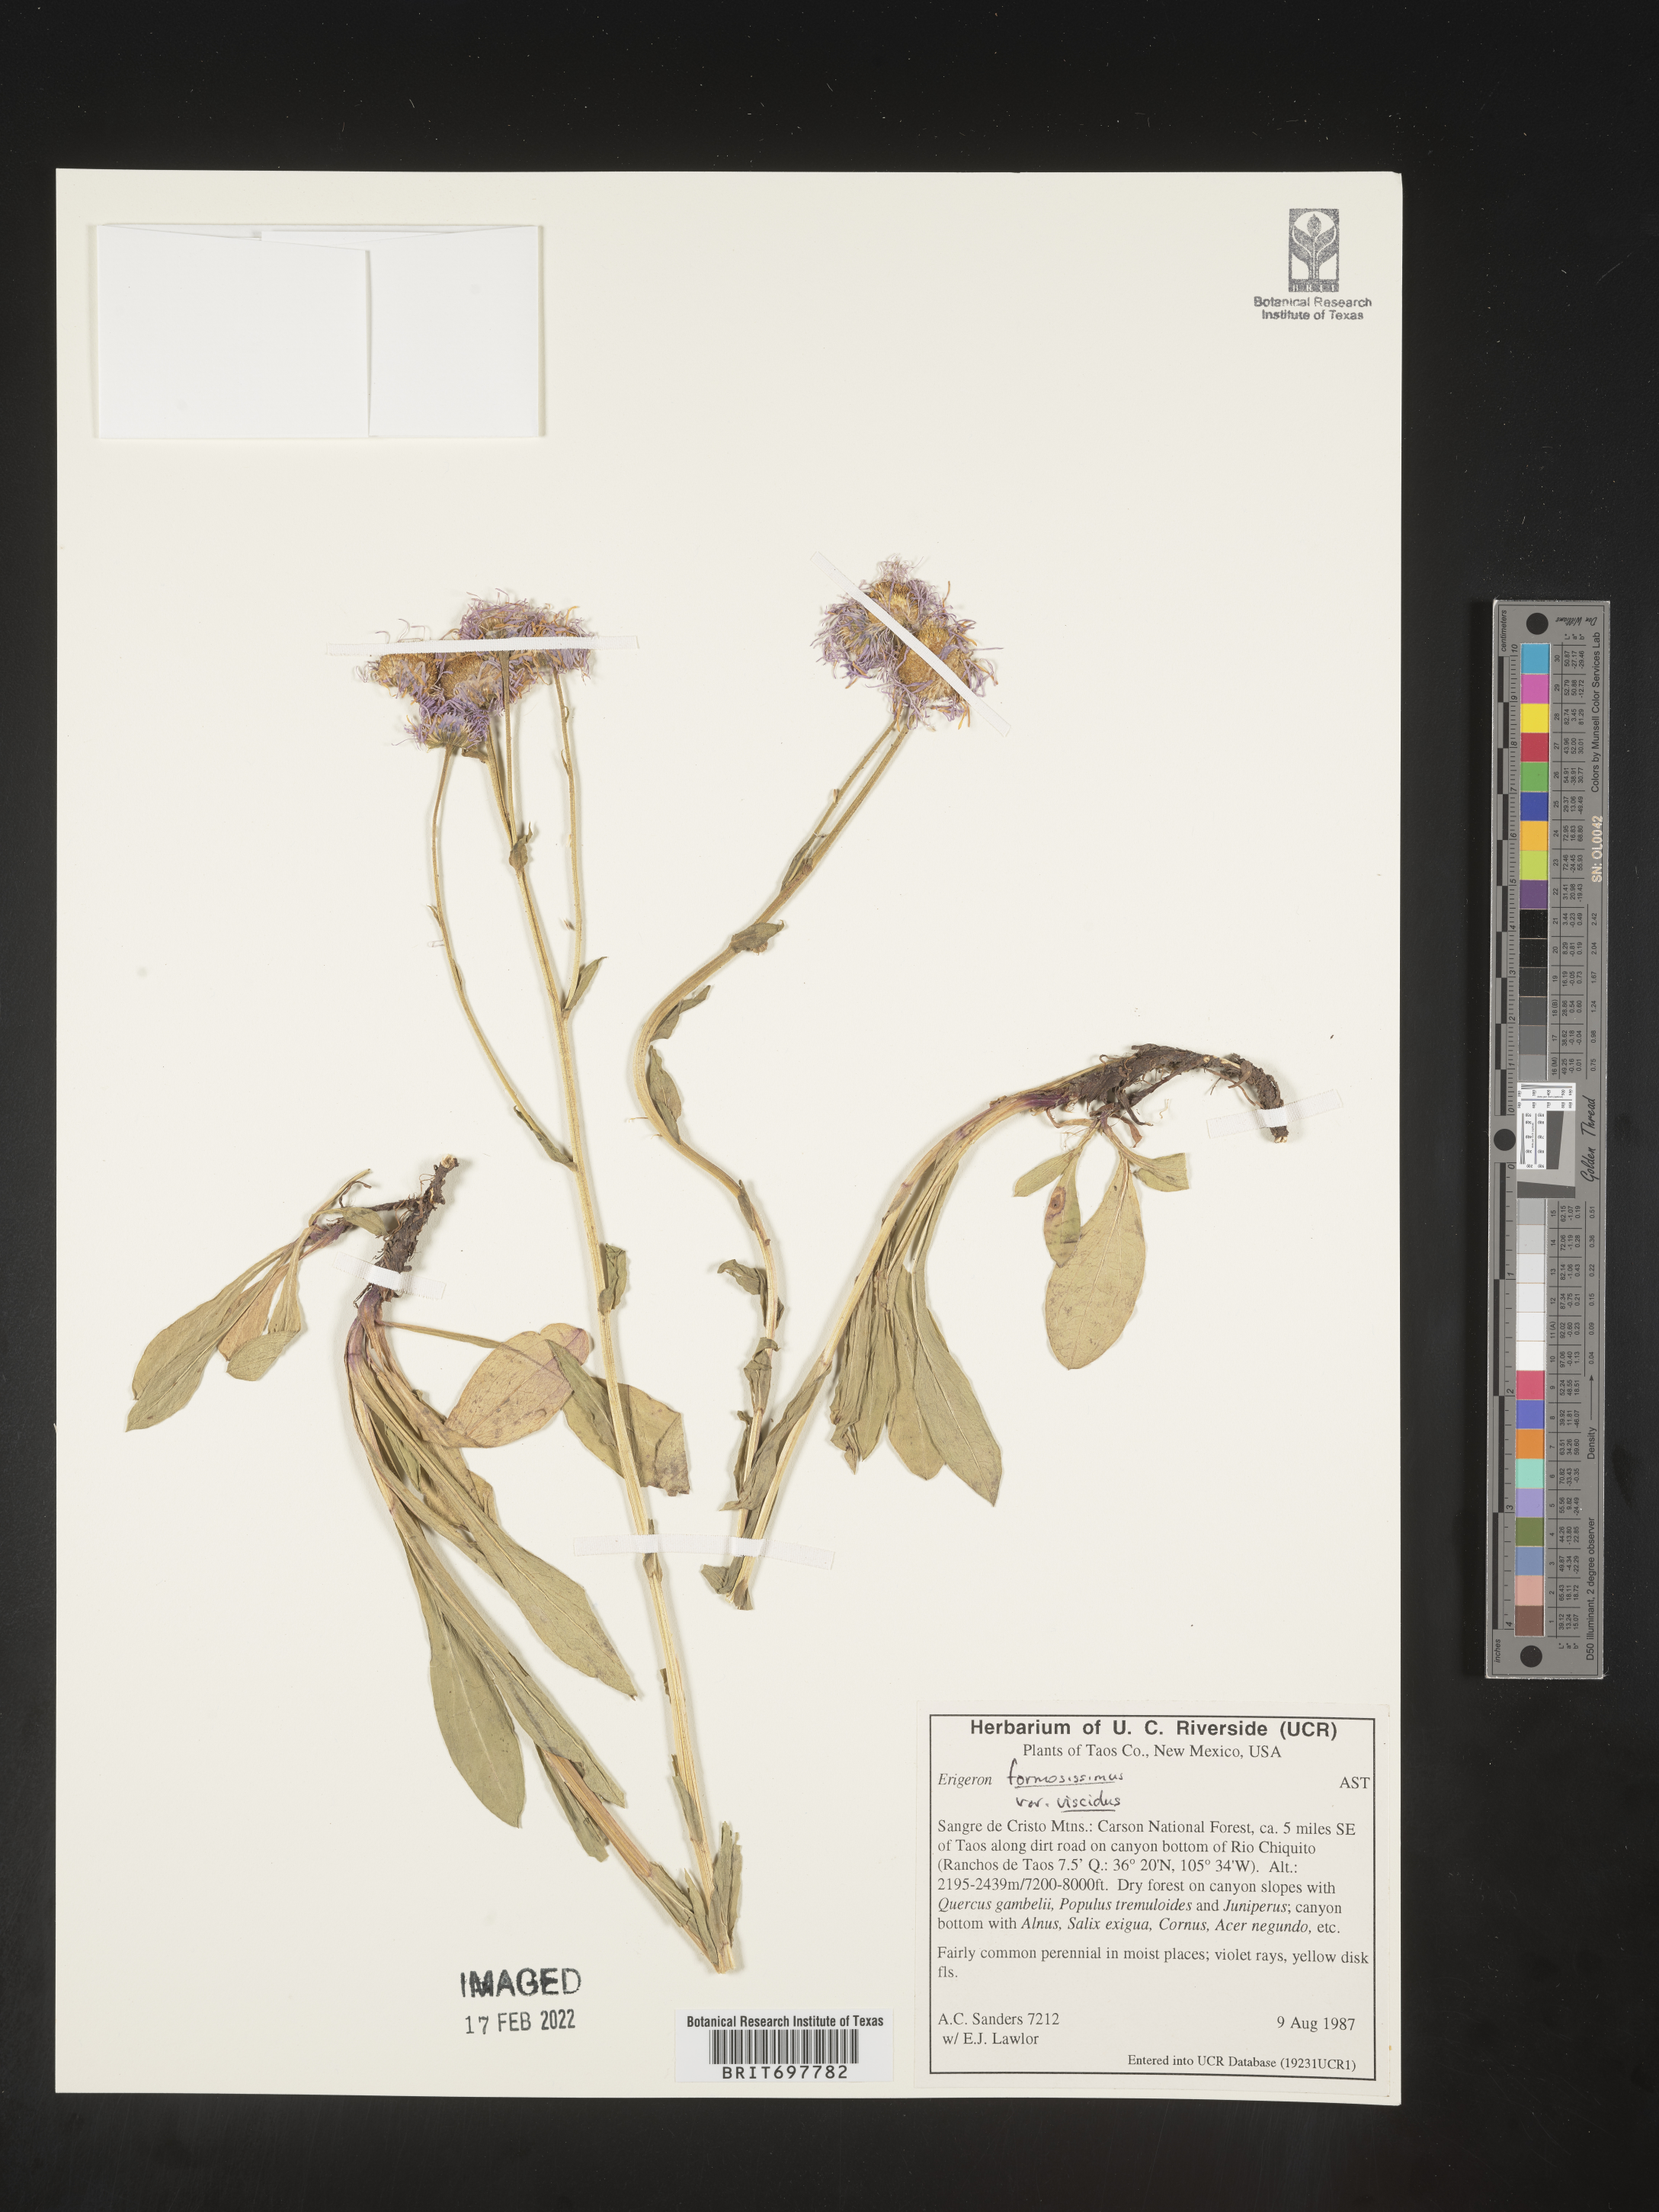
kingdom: Plantae
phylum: Tracheophyta
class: Magnoliopsida
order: Asterales
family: Asteraceae
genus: Erigeron
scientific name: Erigeron formosissimus
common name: Beautiful fleabane
